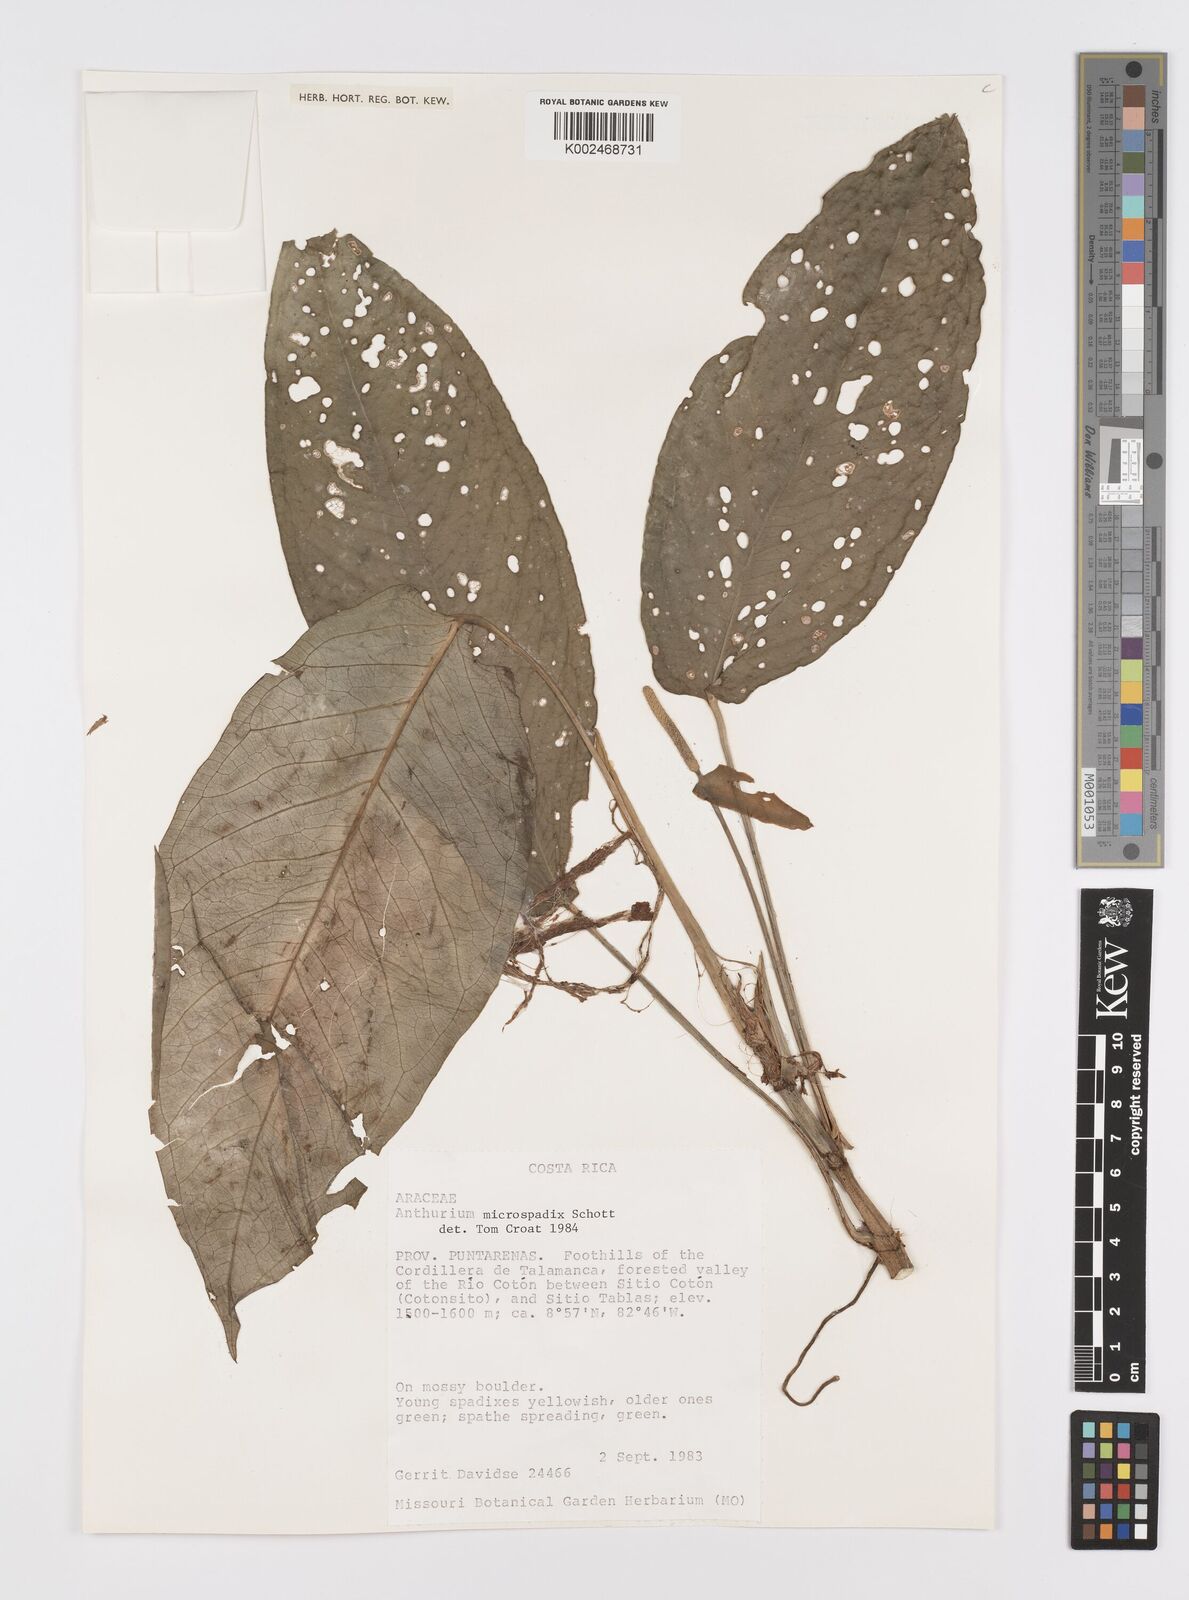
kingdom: Plantae
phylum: Tracheophyta
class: Liliopsida
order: Alismatales
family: Araceae
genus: Anthurium
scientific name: Anthurium microspadix
